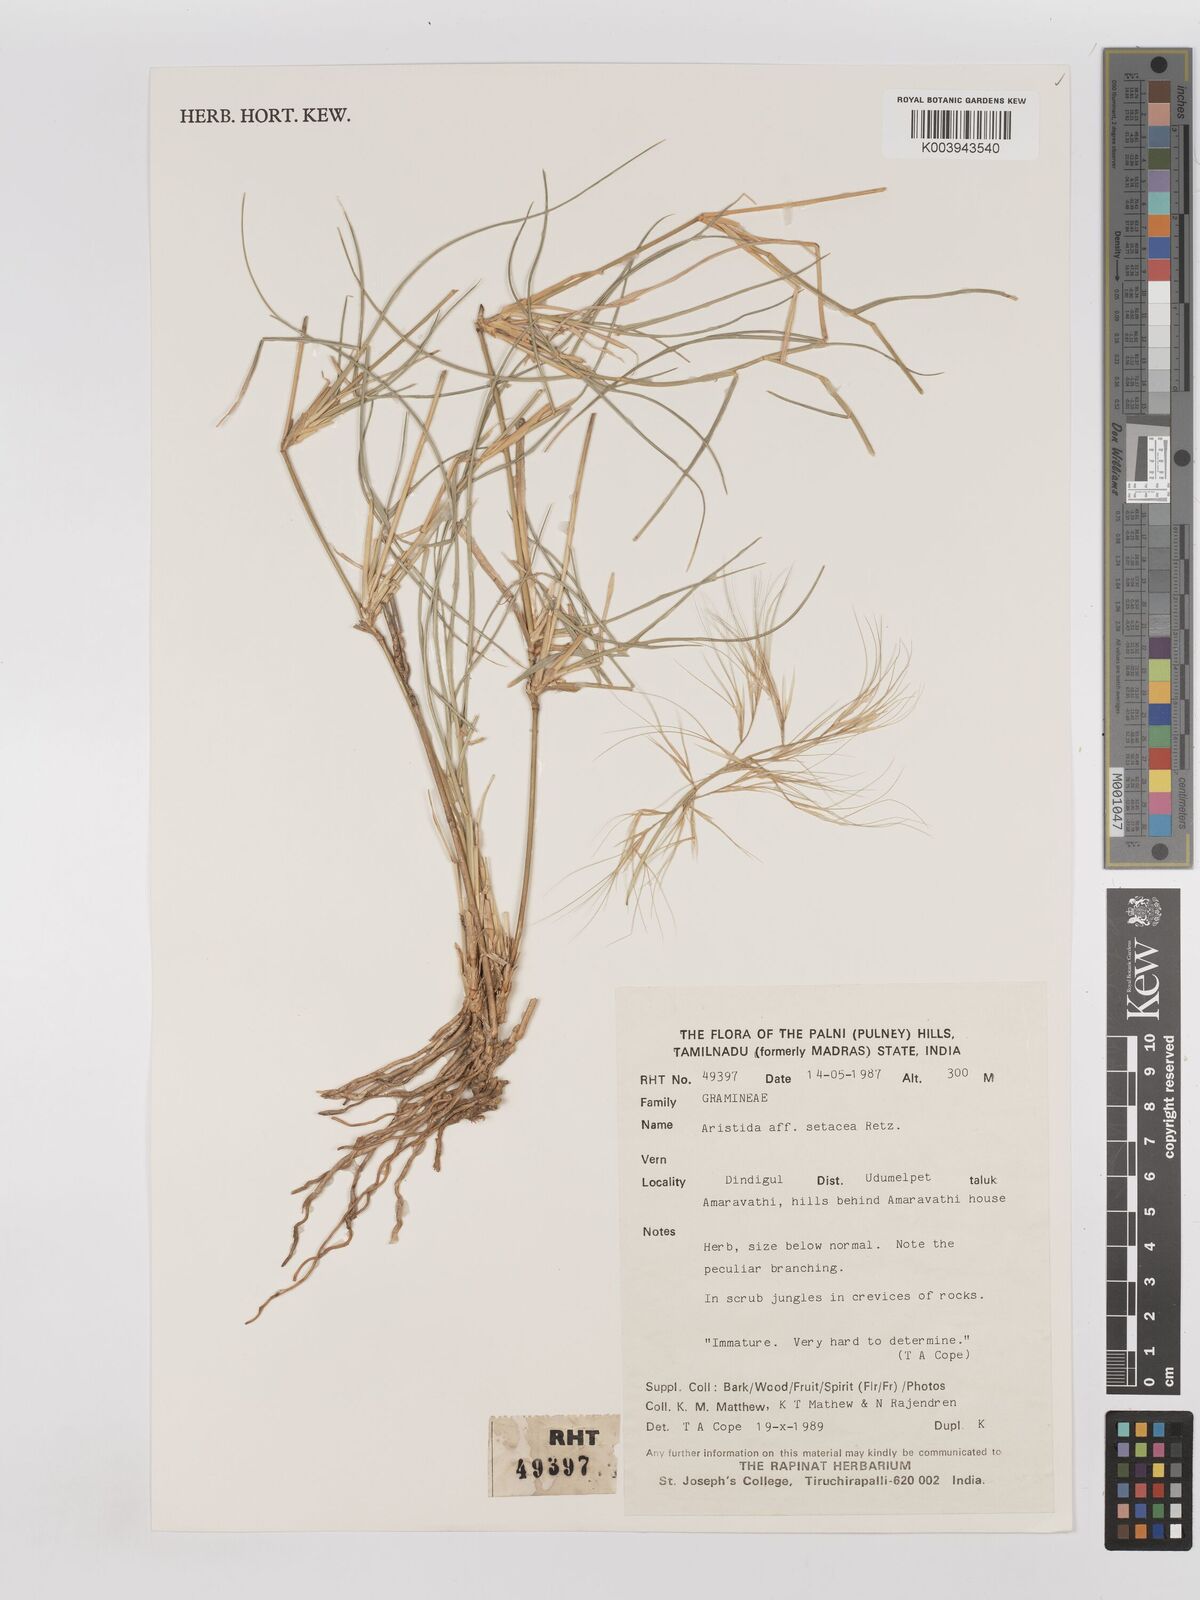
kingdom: Plantae
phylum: Tracheophyta
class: Liliopsida
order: Poales
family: Poaceae
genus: Aristida
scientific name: Aristida setacea
